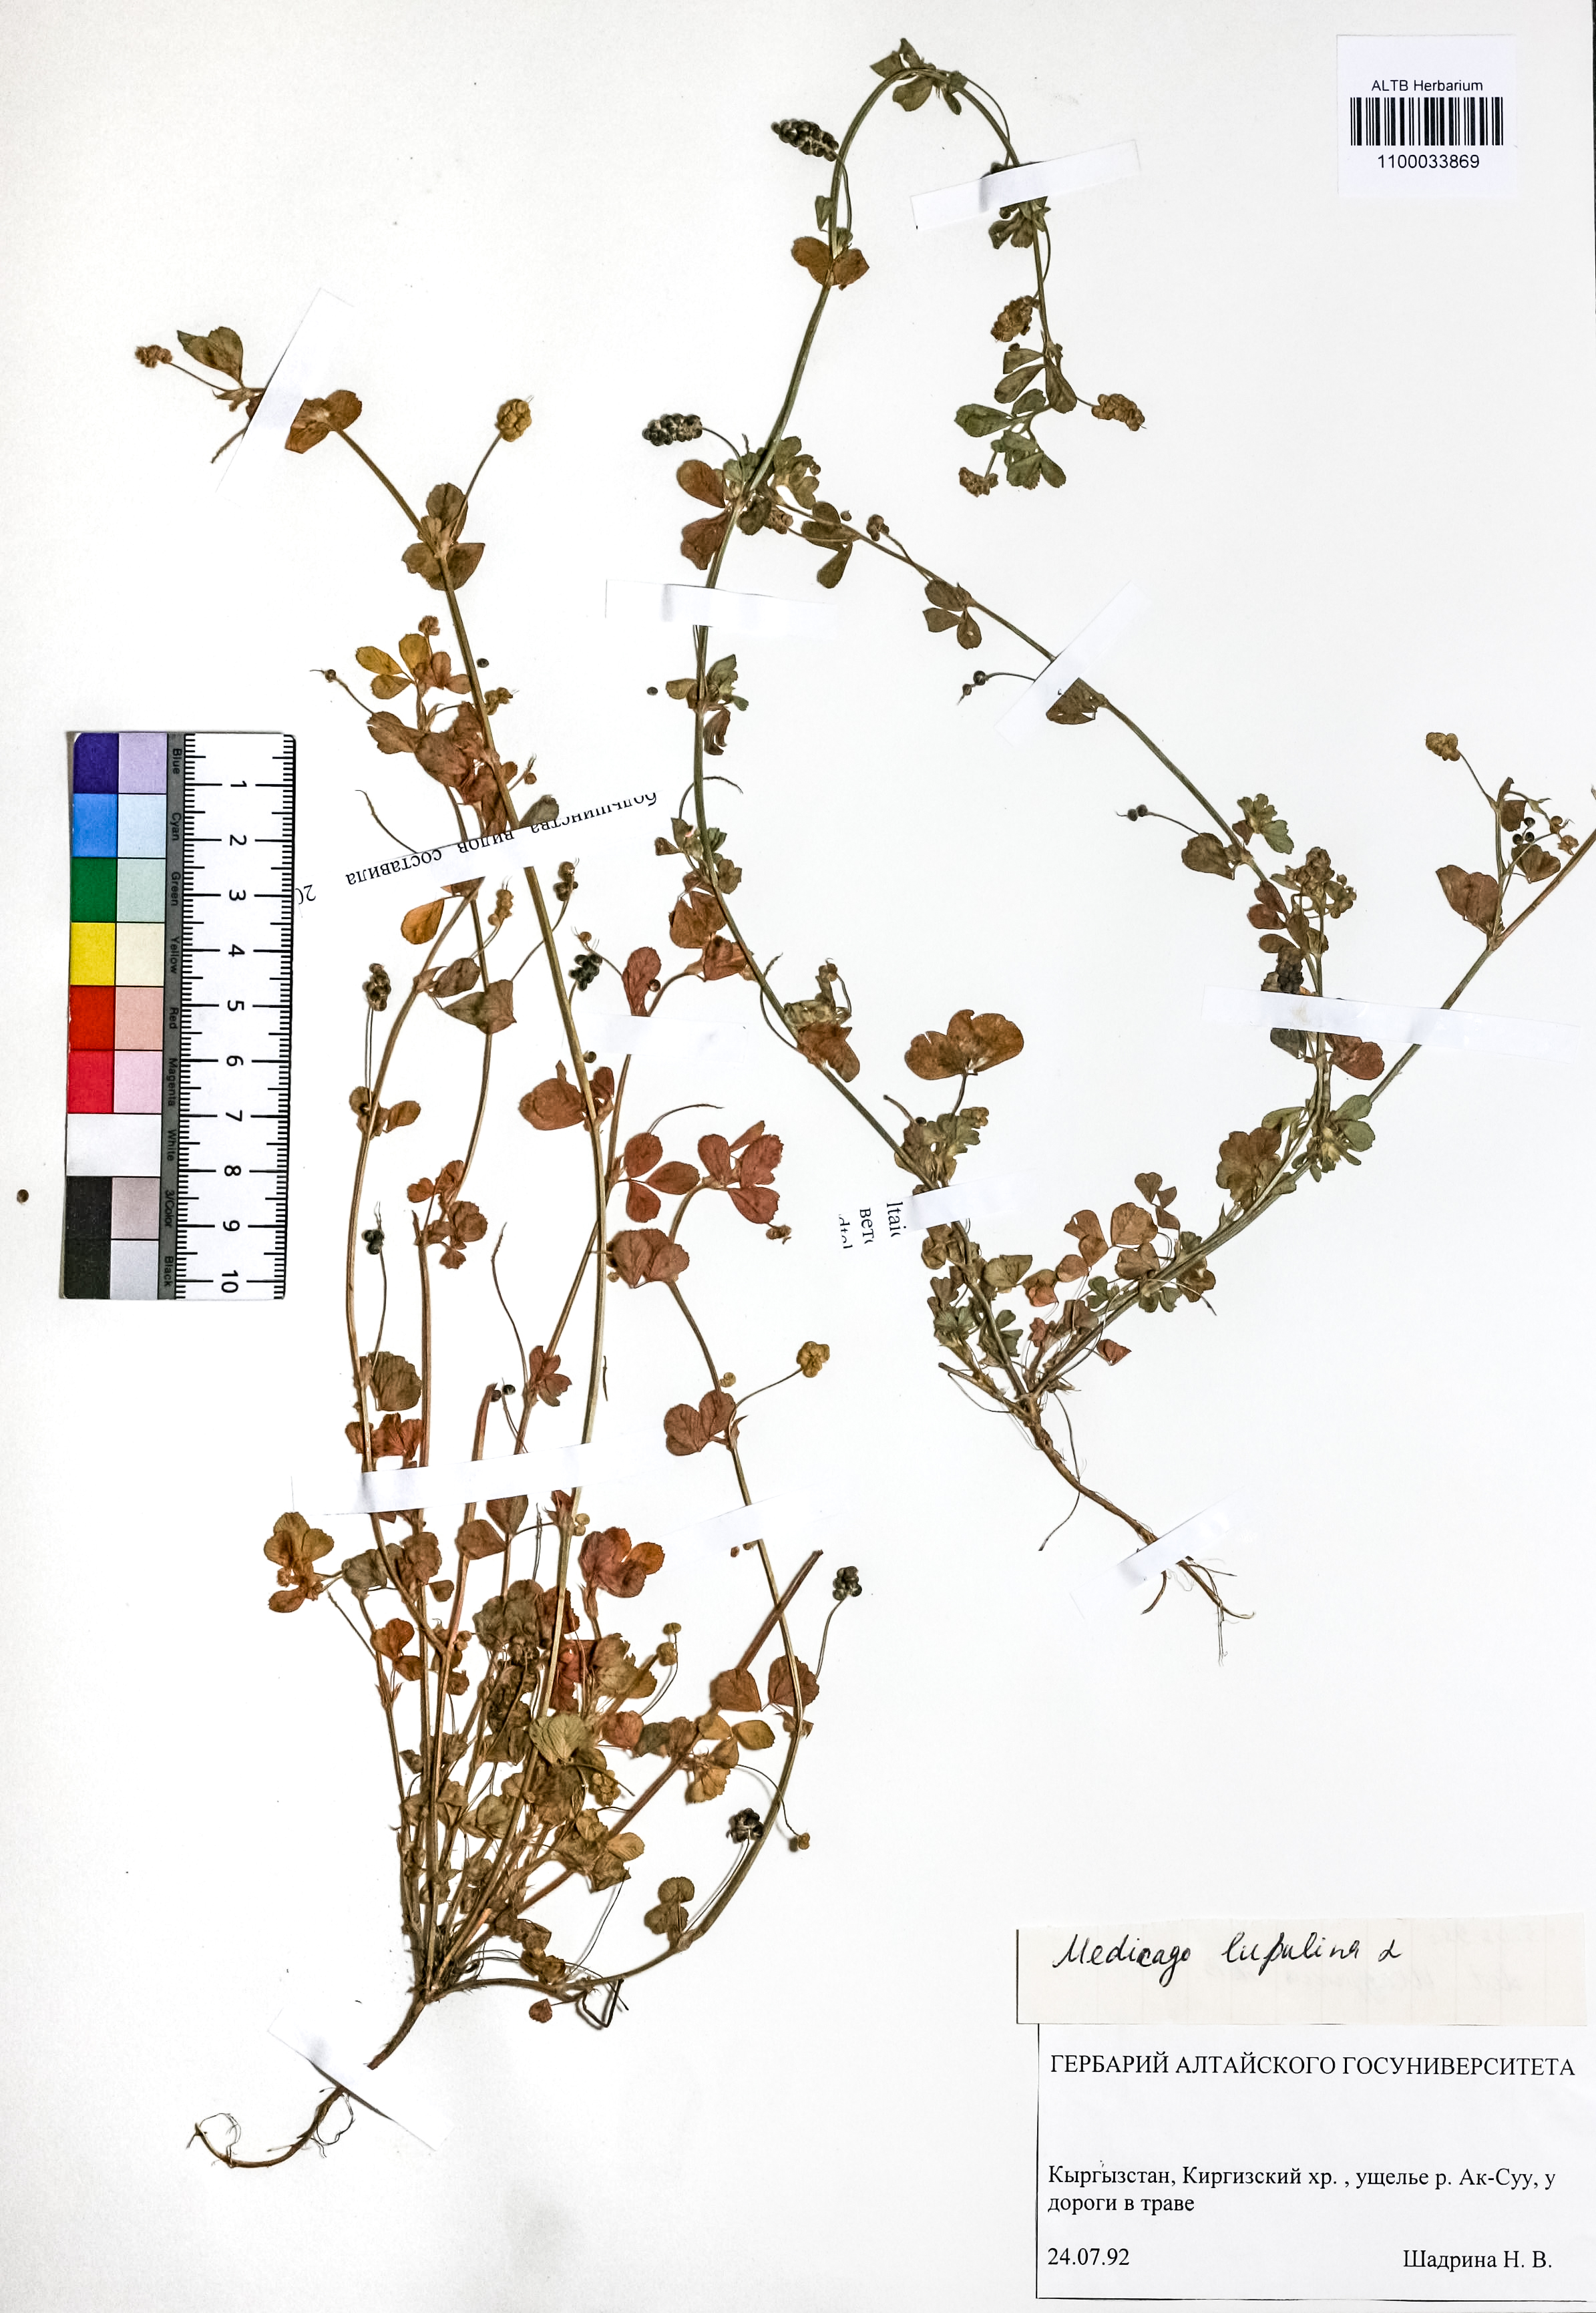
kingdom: Plantae
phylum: Tracheophyta
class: Magnoliopsida
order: Fabales
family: Fabaceae
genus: Medicago
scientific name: Medicago lupulina
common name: Black medick
